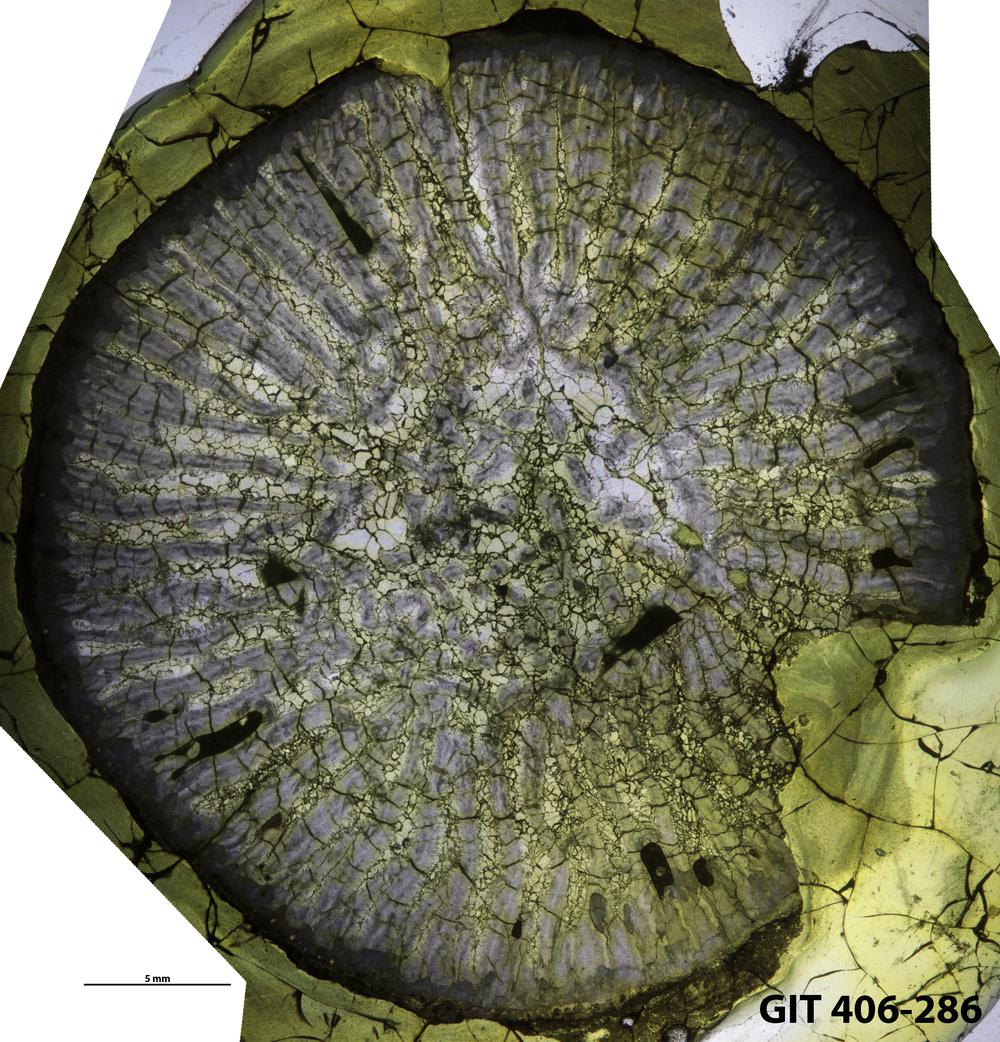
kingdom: Animalia
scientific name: Animalia
